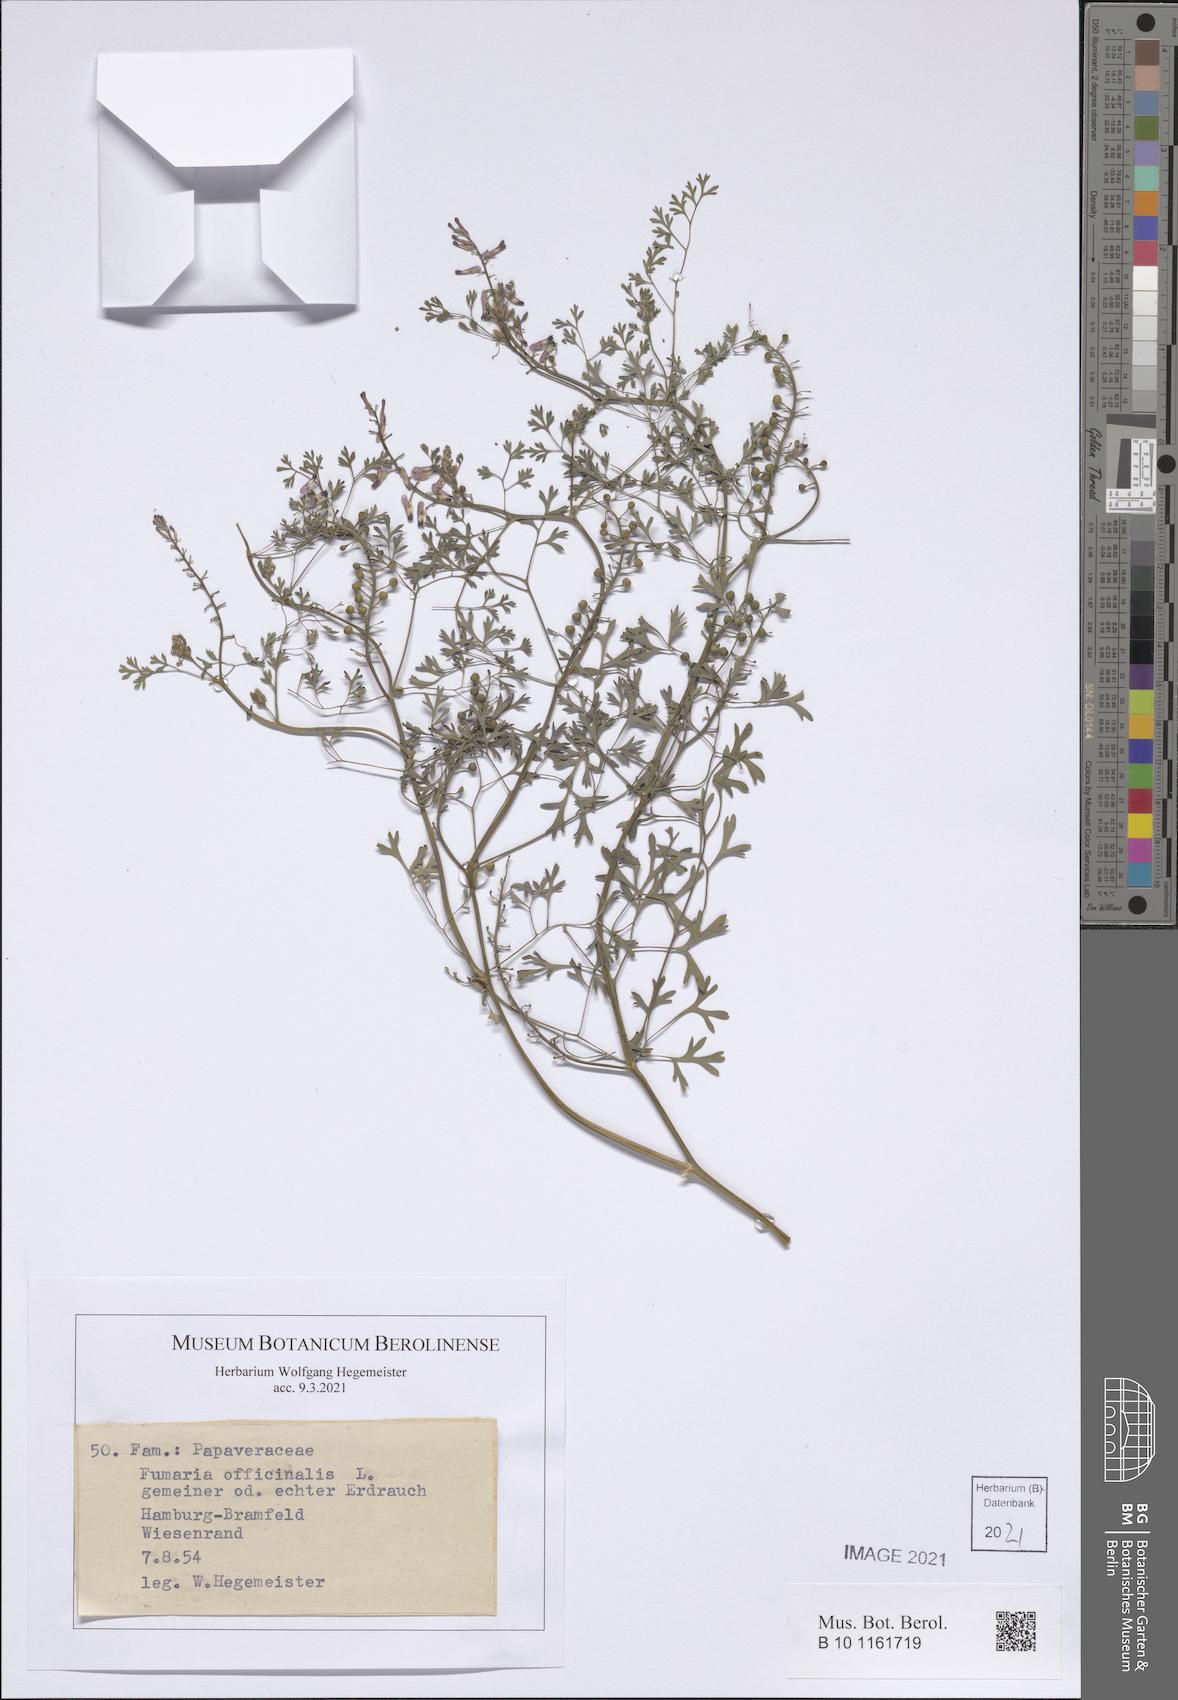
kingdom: Plantae
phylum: Tracheophyta
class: Magnoliopsida
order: Ranunculales
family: Papaveraceae
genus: Fumaria
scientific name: Fumaria officinalis
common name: Common fumitory
